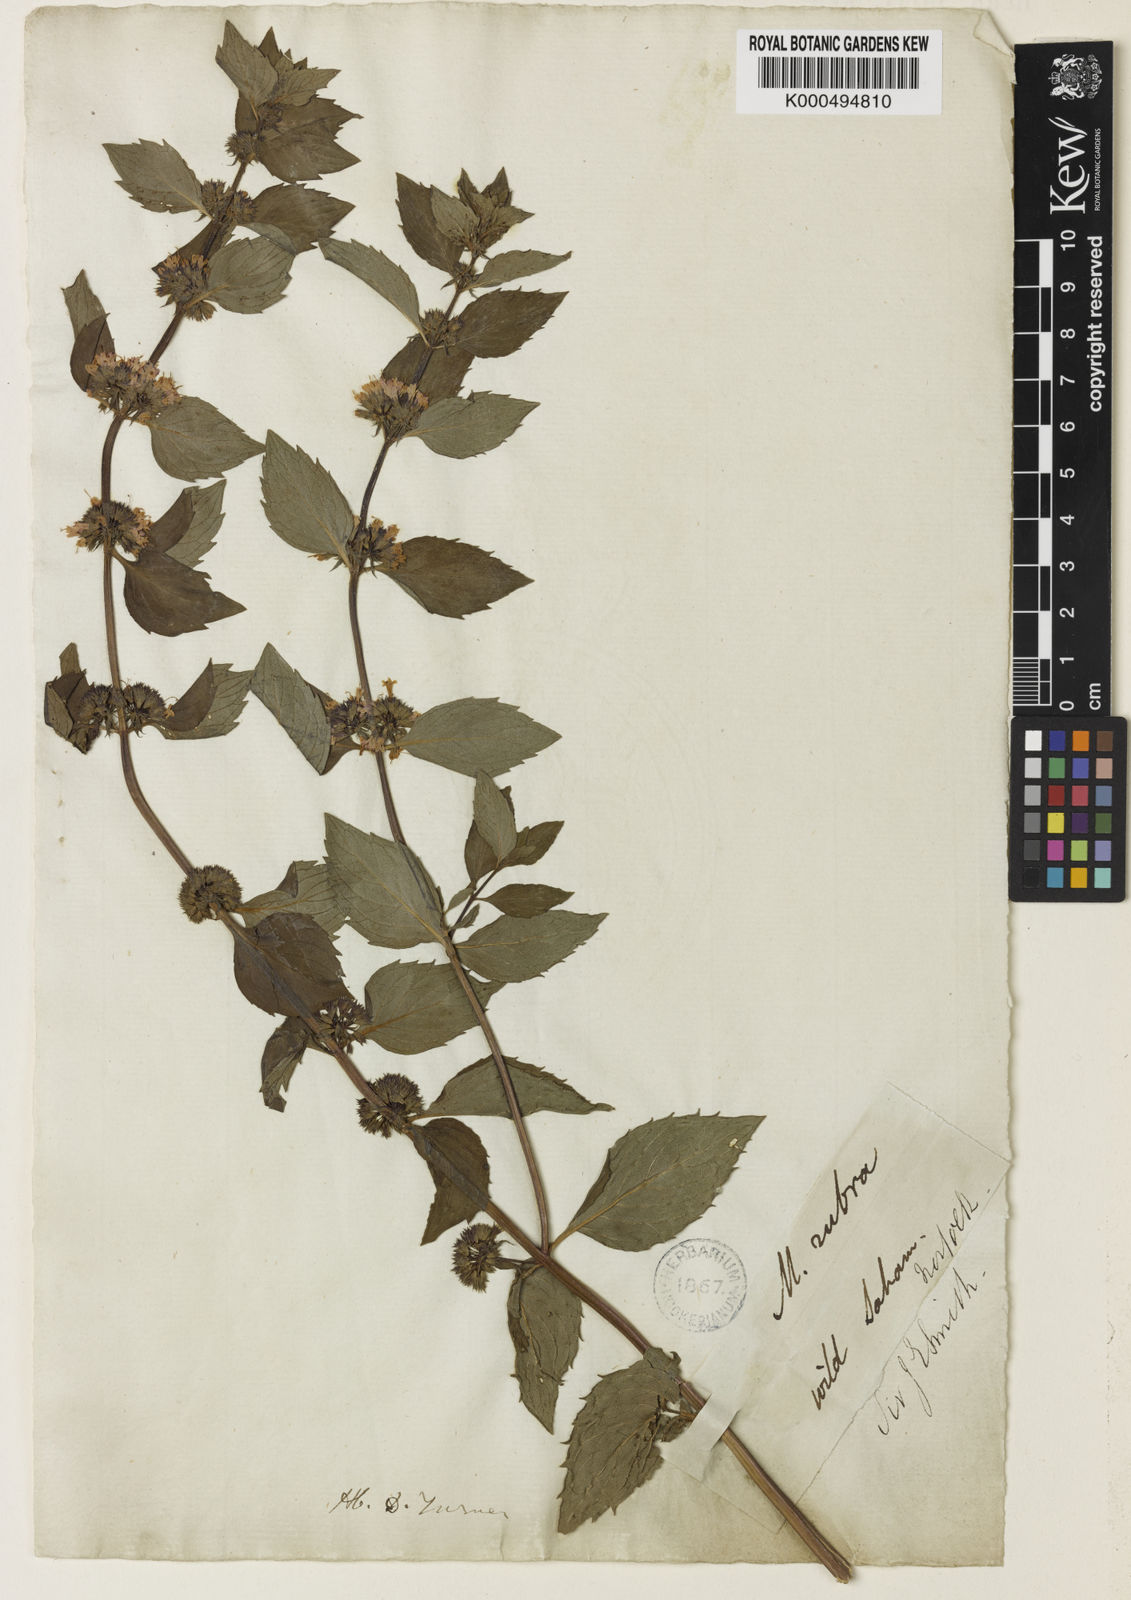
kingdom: Plantae
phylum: Tracheophyta
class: Magnoliopsida
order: Lamiales
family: Lamiaceae
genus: Mentha
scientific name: Mentha wirtgeniana
